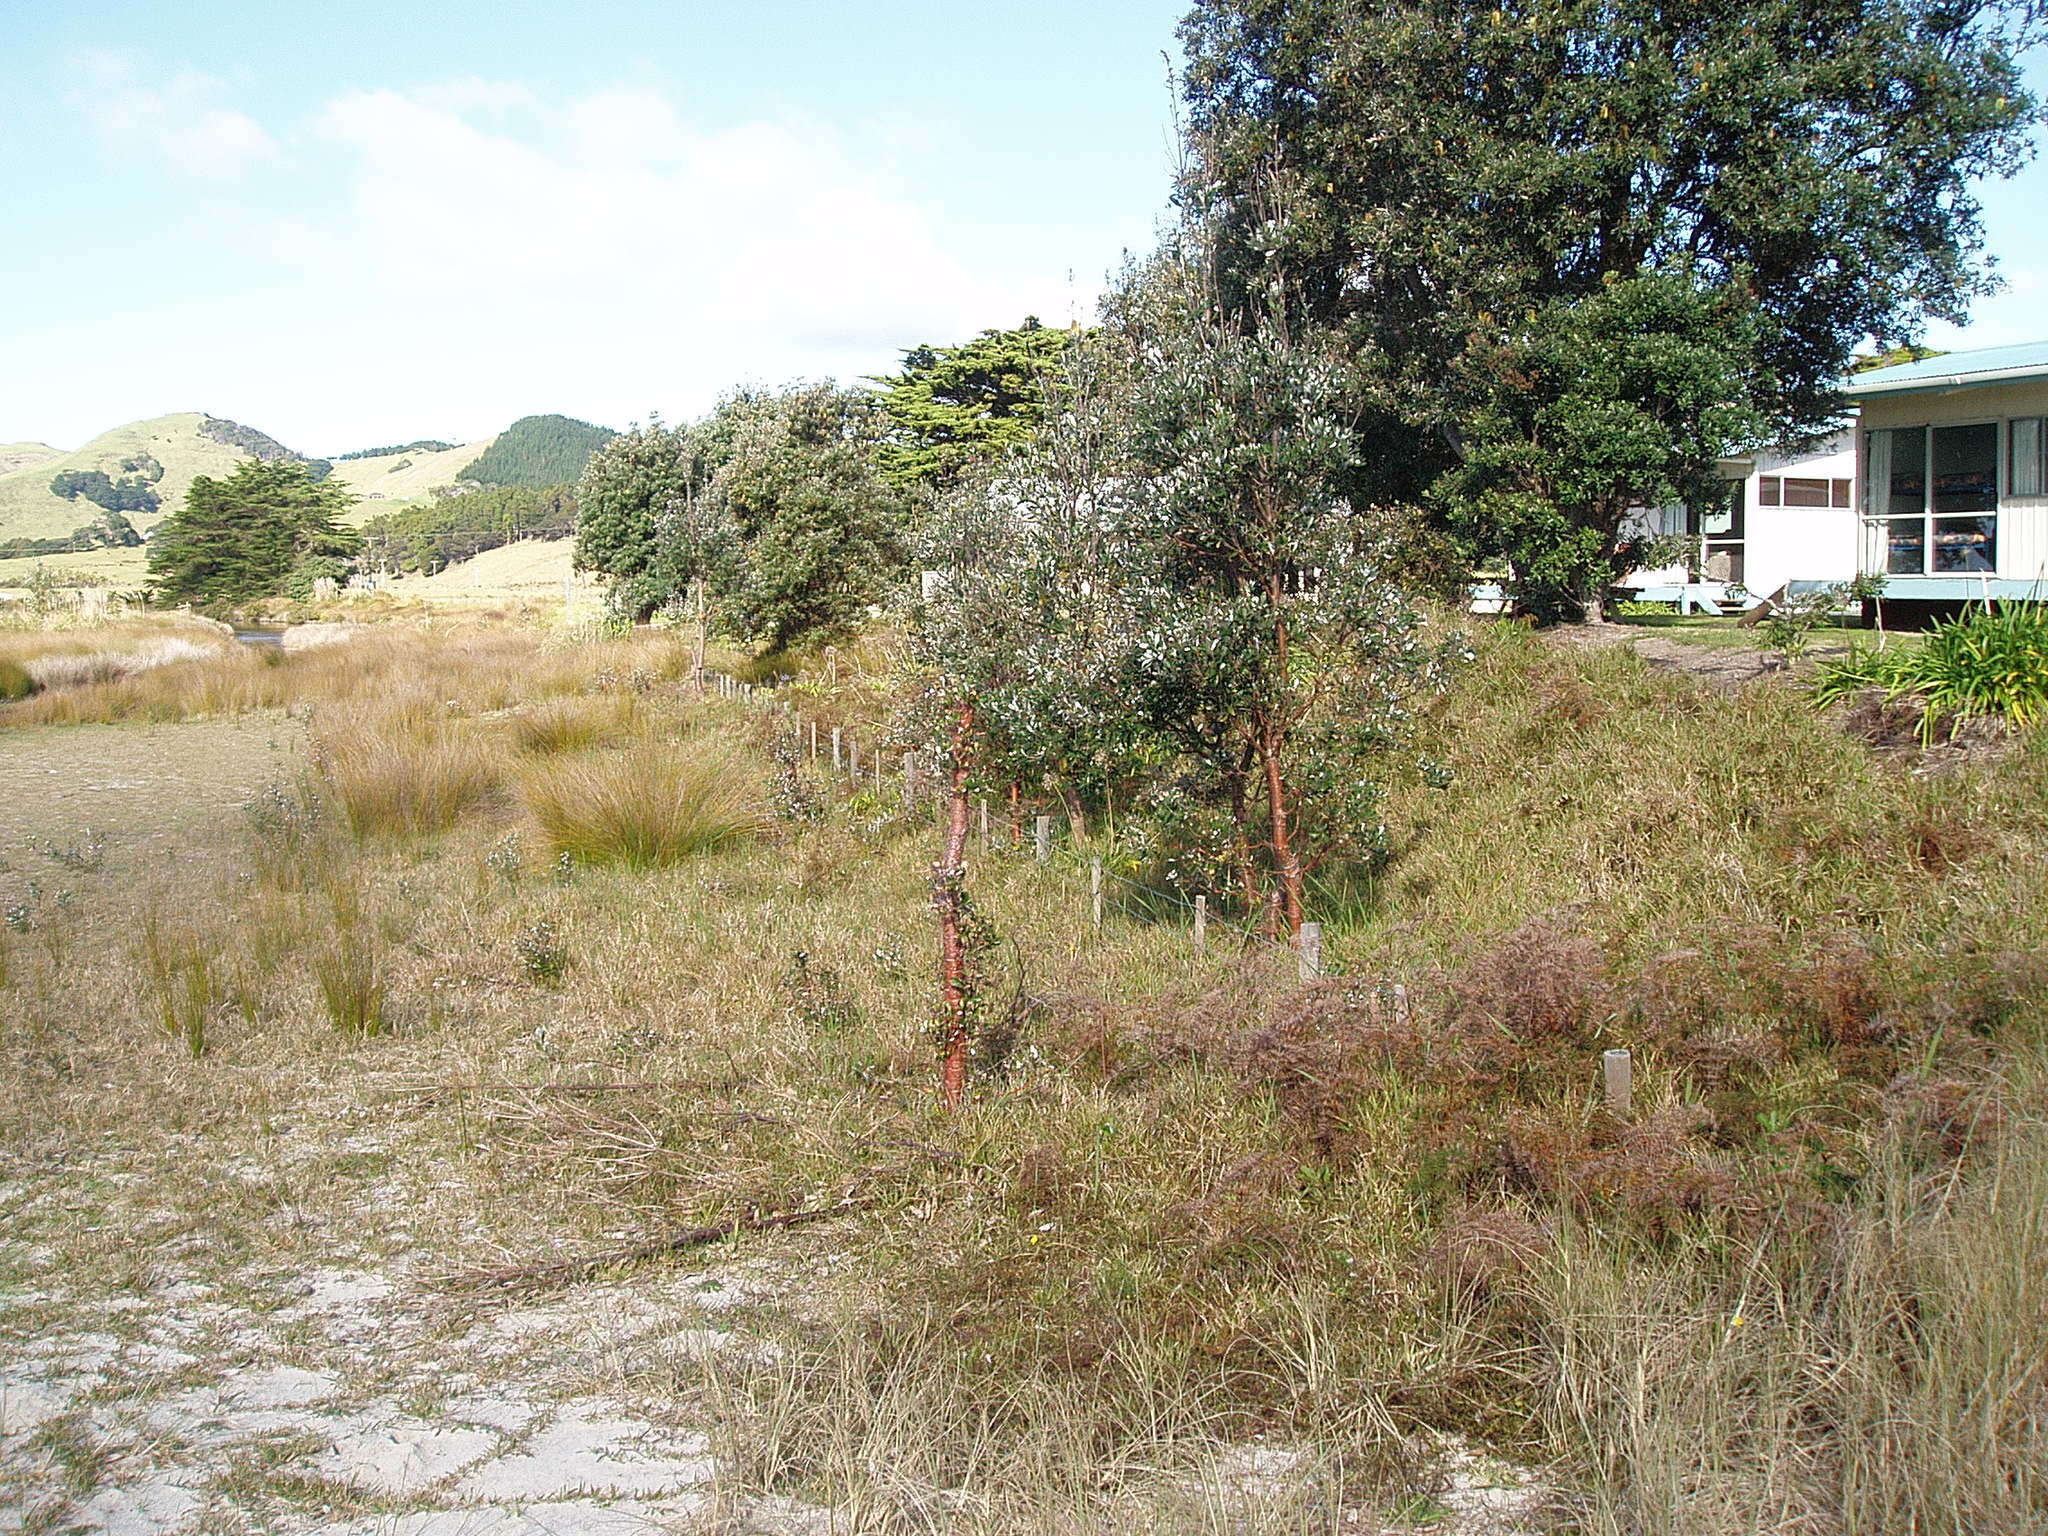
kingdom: Plantae
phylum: Tracheophyta
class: Magnoliopsida
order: Proteales
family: Proteaceae
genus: Banksia
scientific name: Banksia integrifolia
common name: White-honeysuckle
